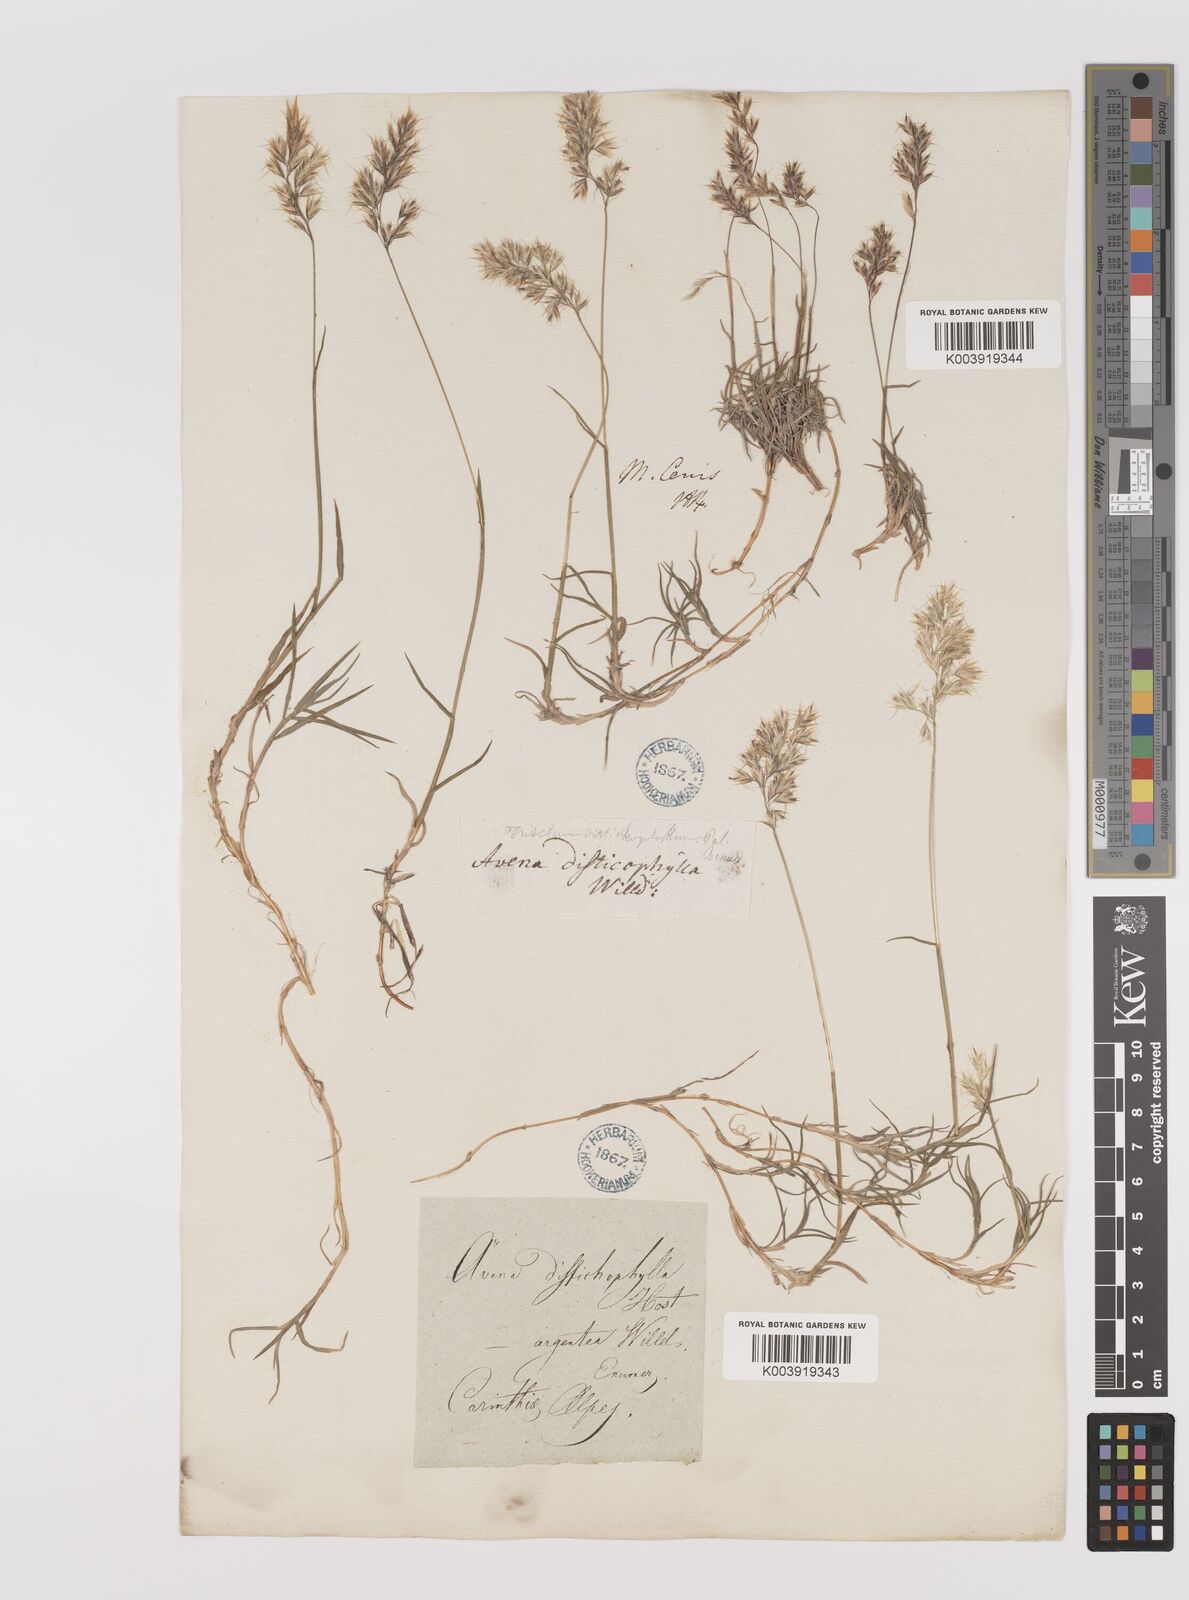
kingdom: Plantae
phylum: Tracheophyta
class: Liliopsida
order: Poales
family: Poaceae
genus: Acrospelion
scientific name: Acrospelion distichophyllum
